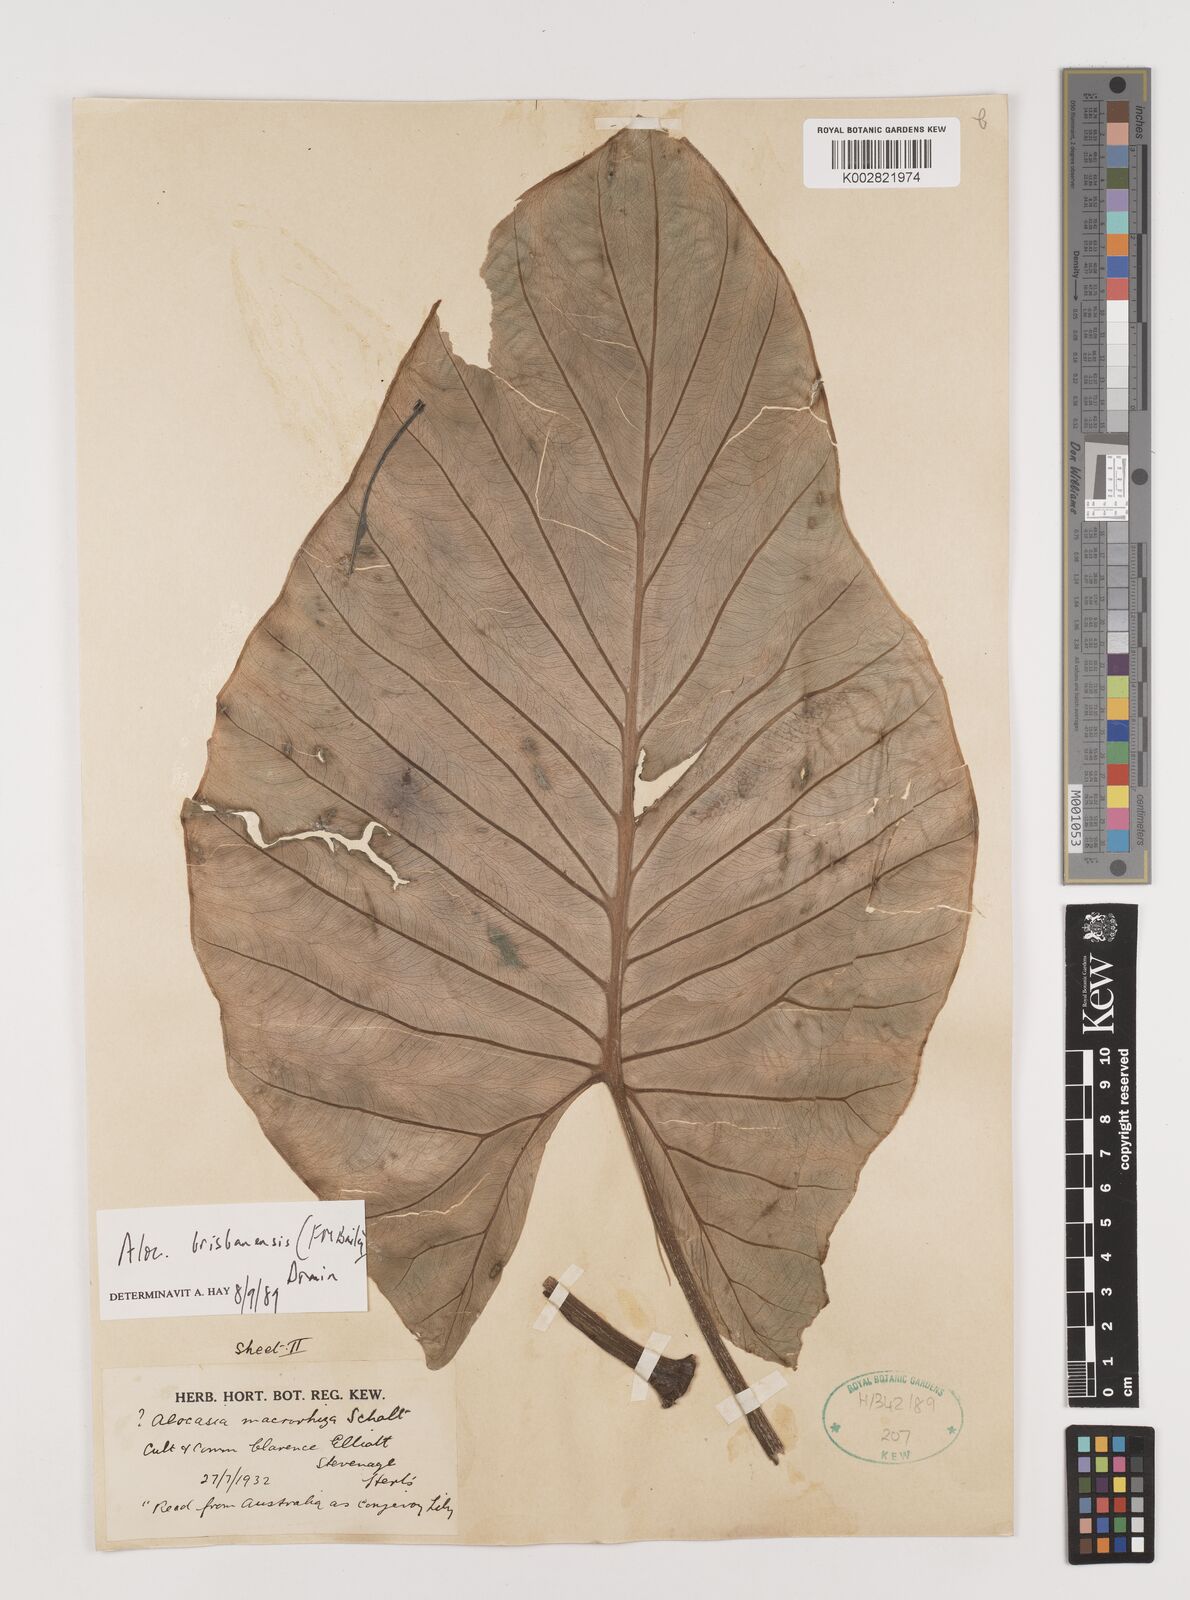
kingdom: Plantae
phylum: Tracheophyta
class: Liliopsida
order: Alismatales
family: Araceae
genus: Alocasia
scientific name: Alocasia brisbanensis
